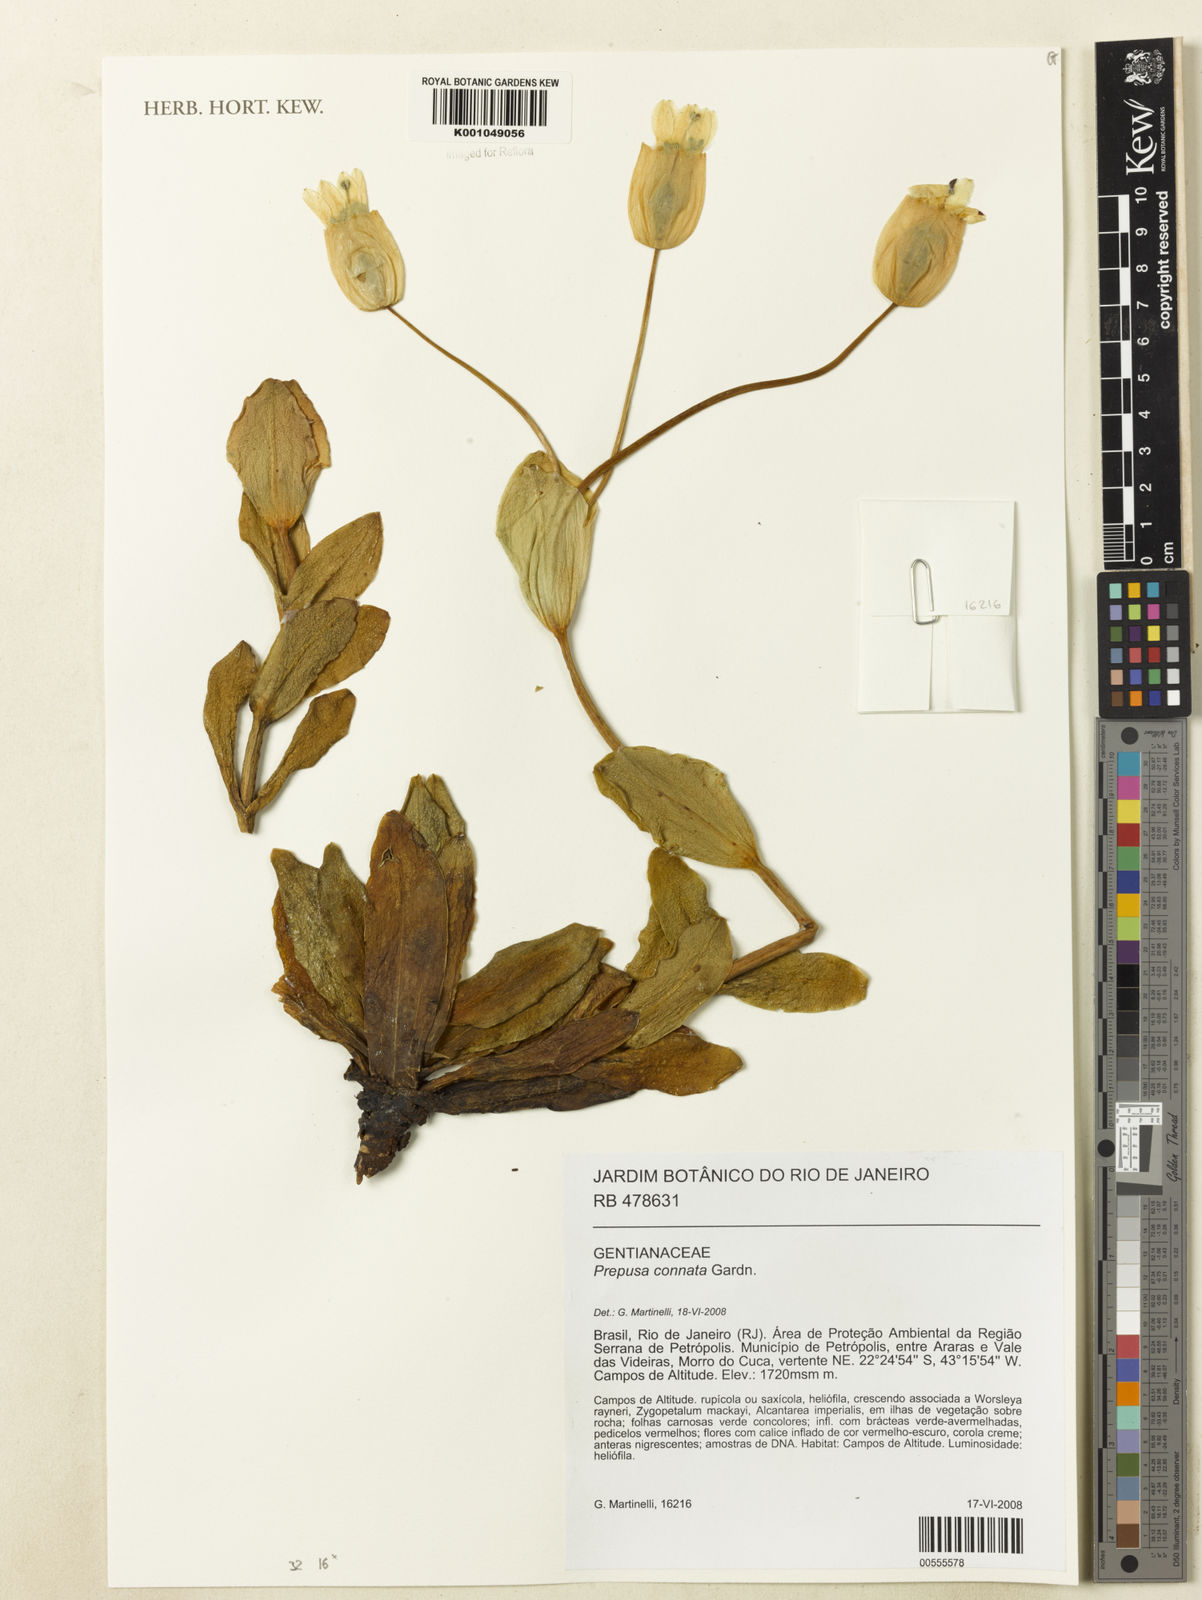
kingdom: Plantae
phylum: Tracheophyta
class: Magnoliopsida
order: Gentianales
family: Gentianaceae
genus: Prepusa
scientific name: Prepusa connata
